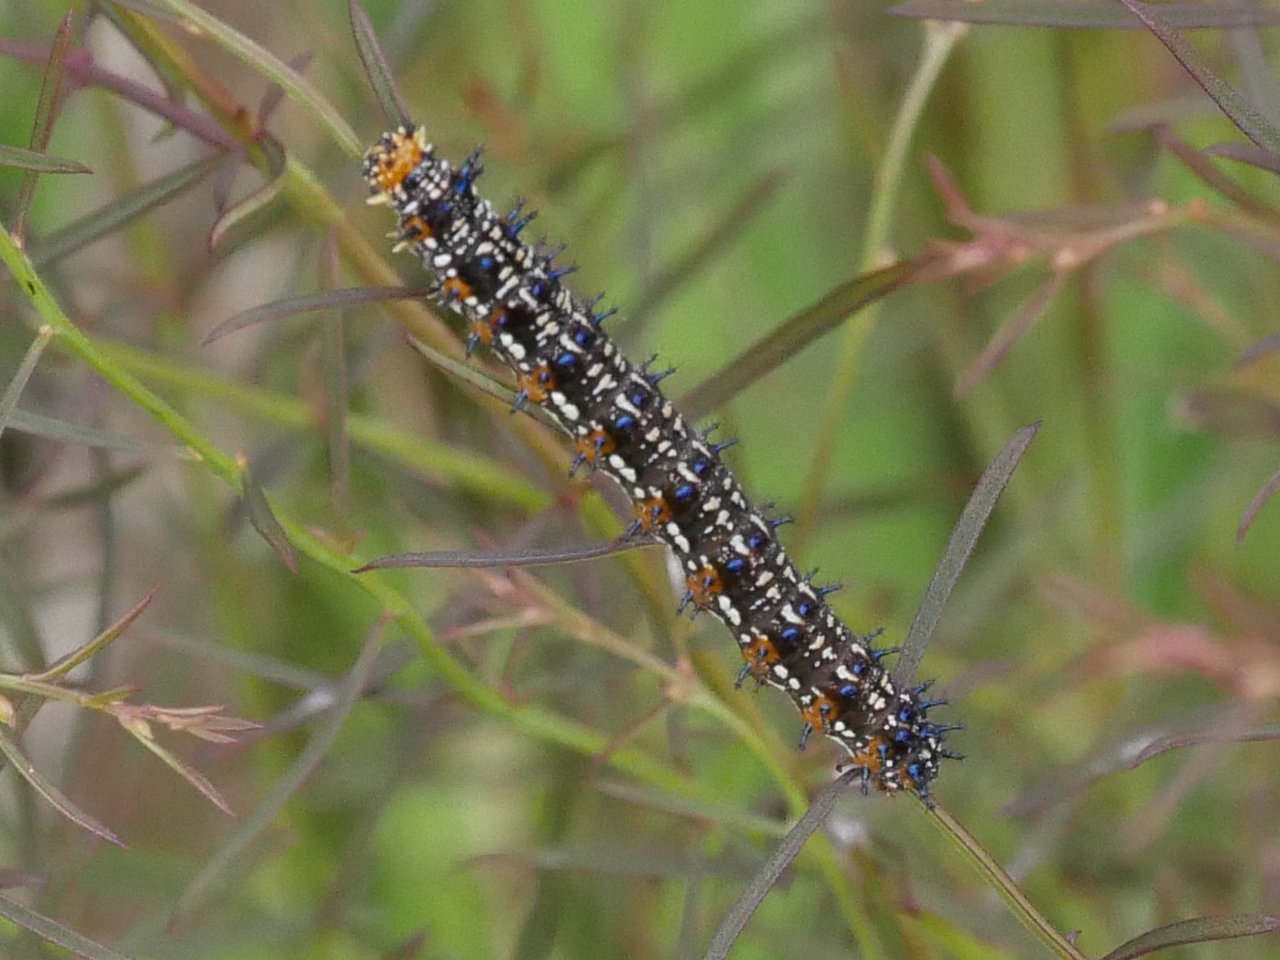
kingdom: Animalia
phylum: Arthropoda
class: Insecta
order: Lepidoptera
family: Nymphalidae
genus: Junonia
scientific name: Junonia coenia
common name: Common Buckeye
